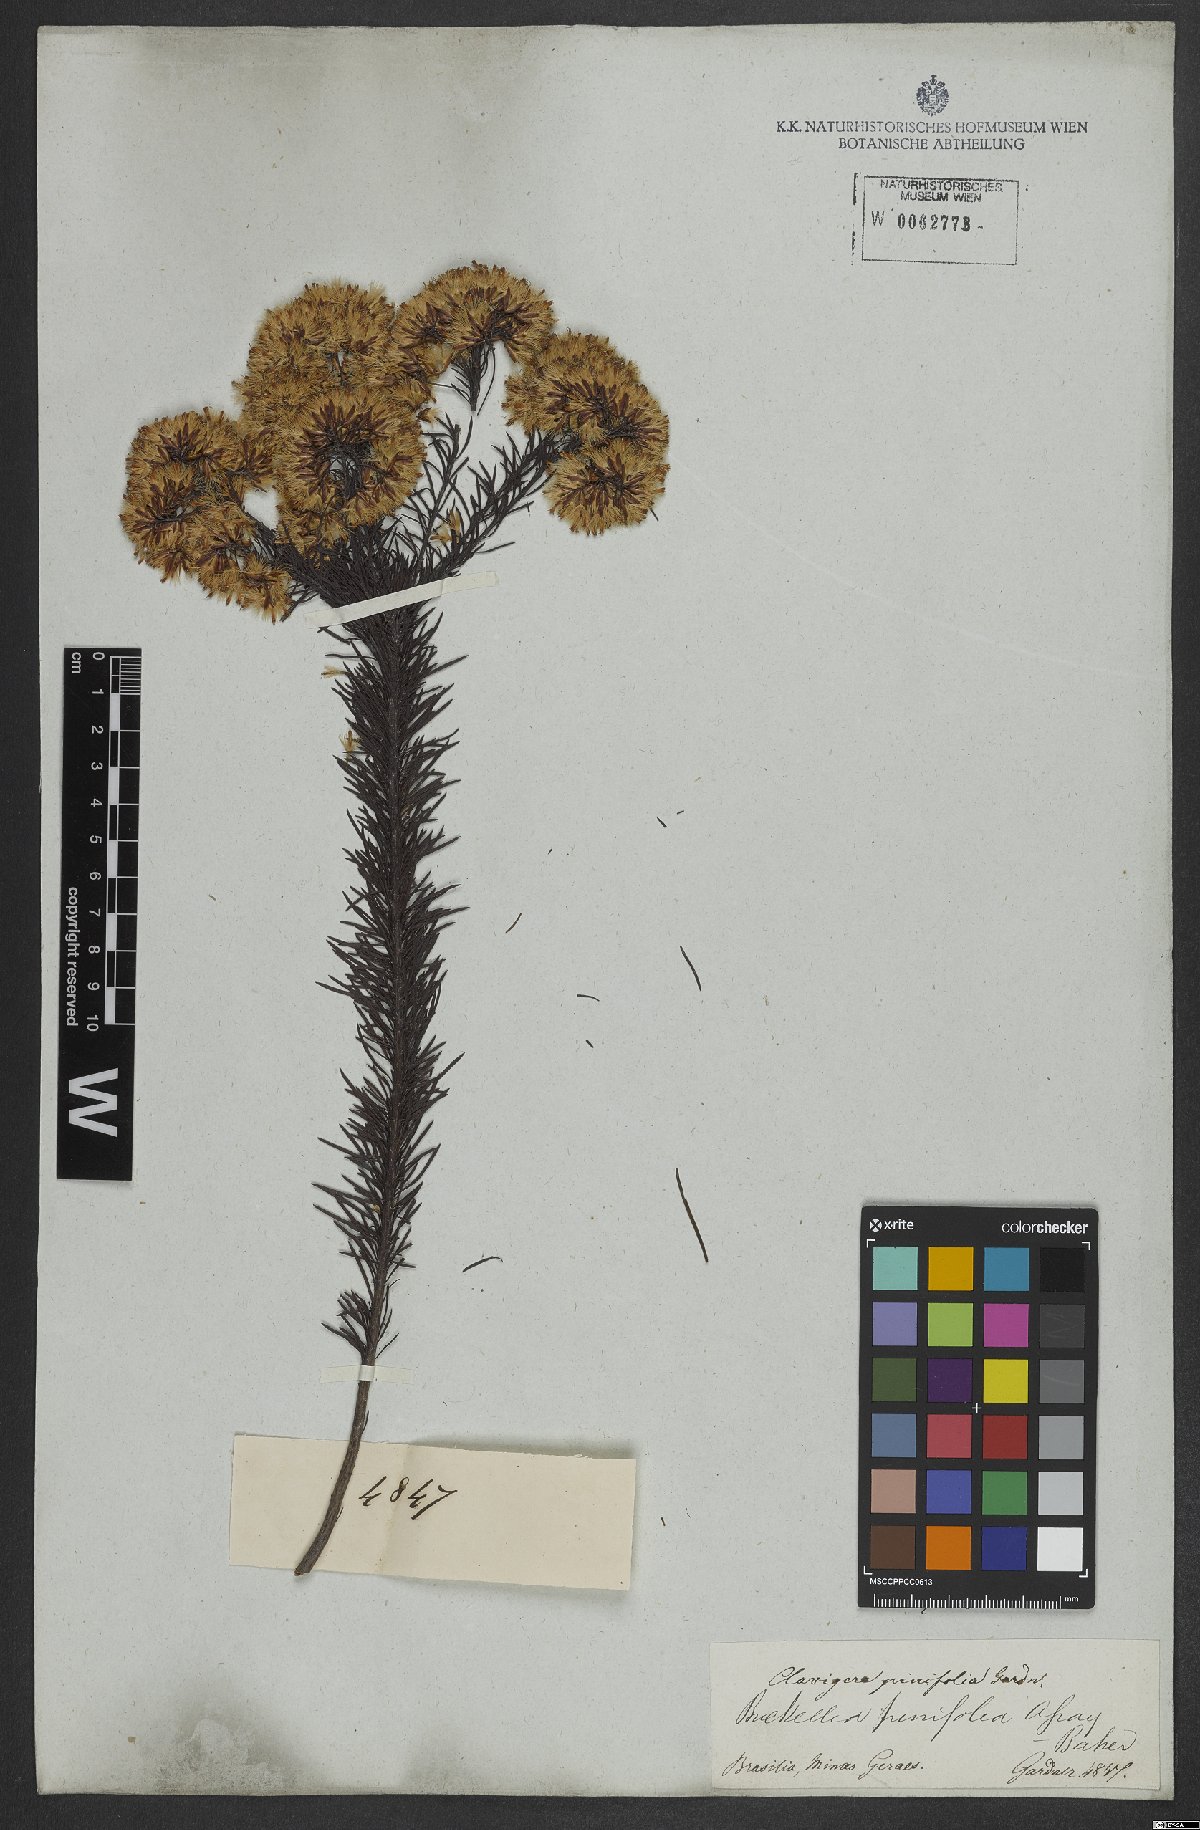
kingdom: Plantae
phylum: Tracheophyta
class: Magnoliopsida
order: Asterales
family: Asteraceae
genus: Pseudobrickellia
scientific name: Pseudobrickellia brasiliensis
